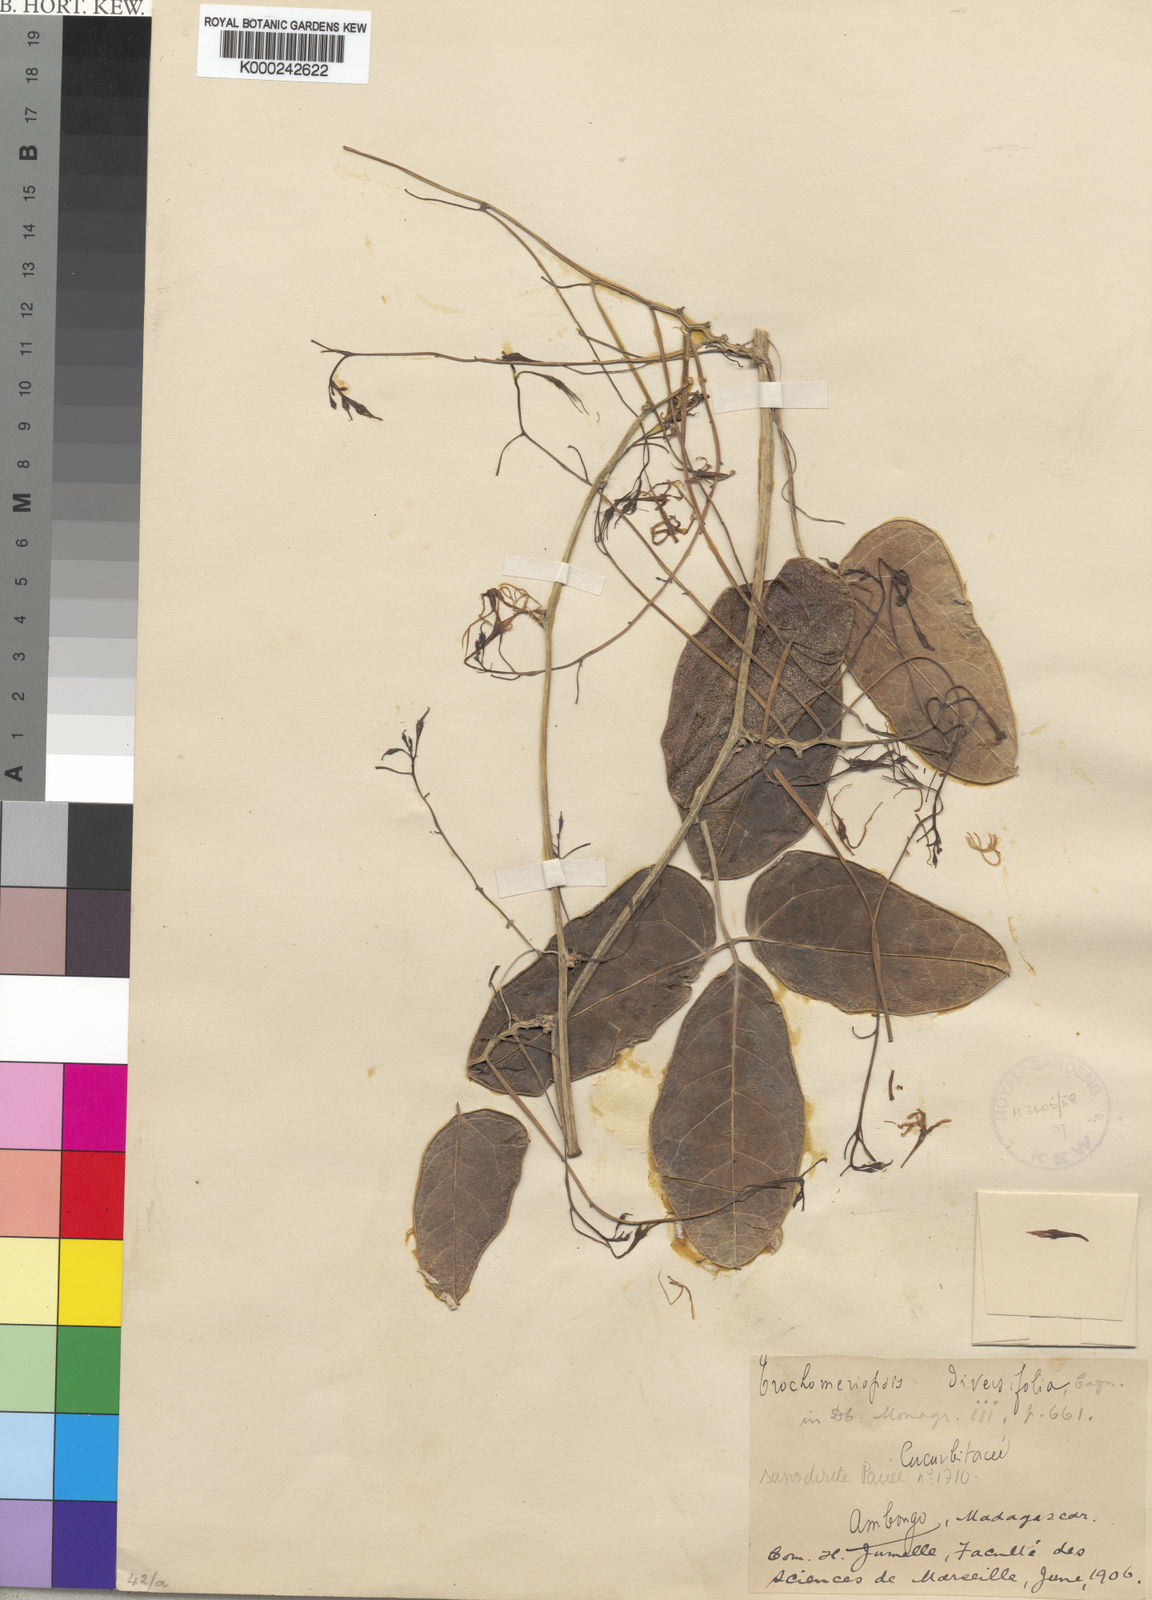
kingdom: Plantae
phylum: Tracheophyta
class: Magnoliopsida
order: Cucurbitales
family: Cucurbitaceae
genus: Trochomeriopsis
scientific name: Trochomeriopsis diversifolia
